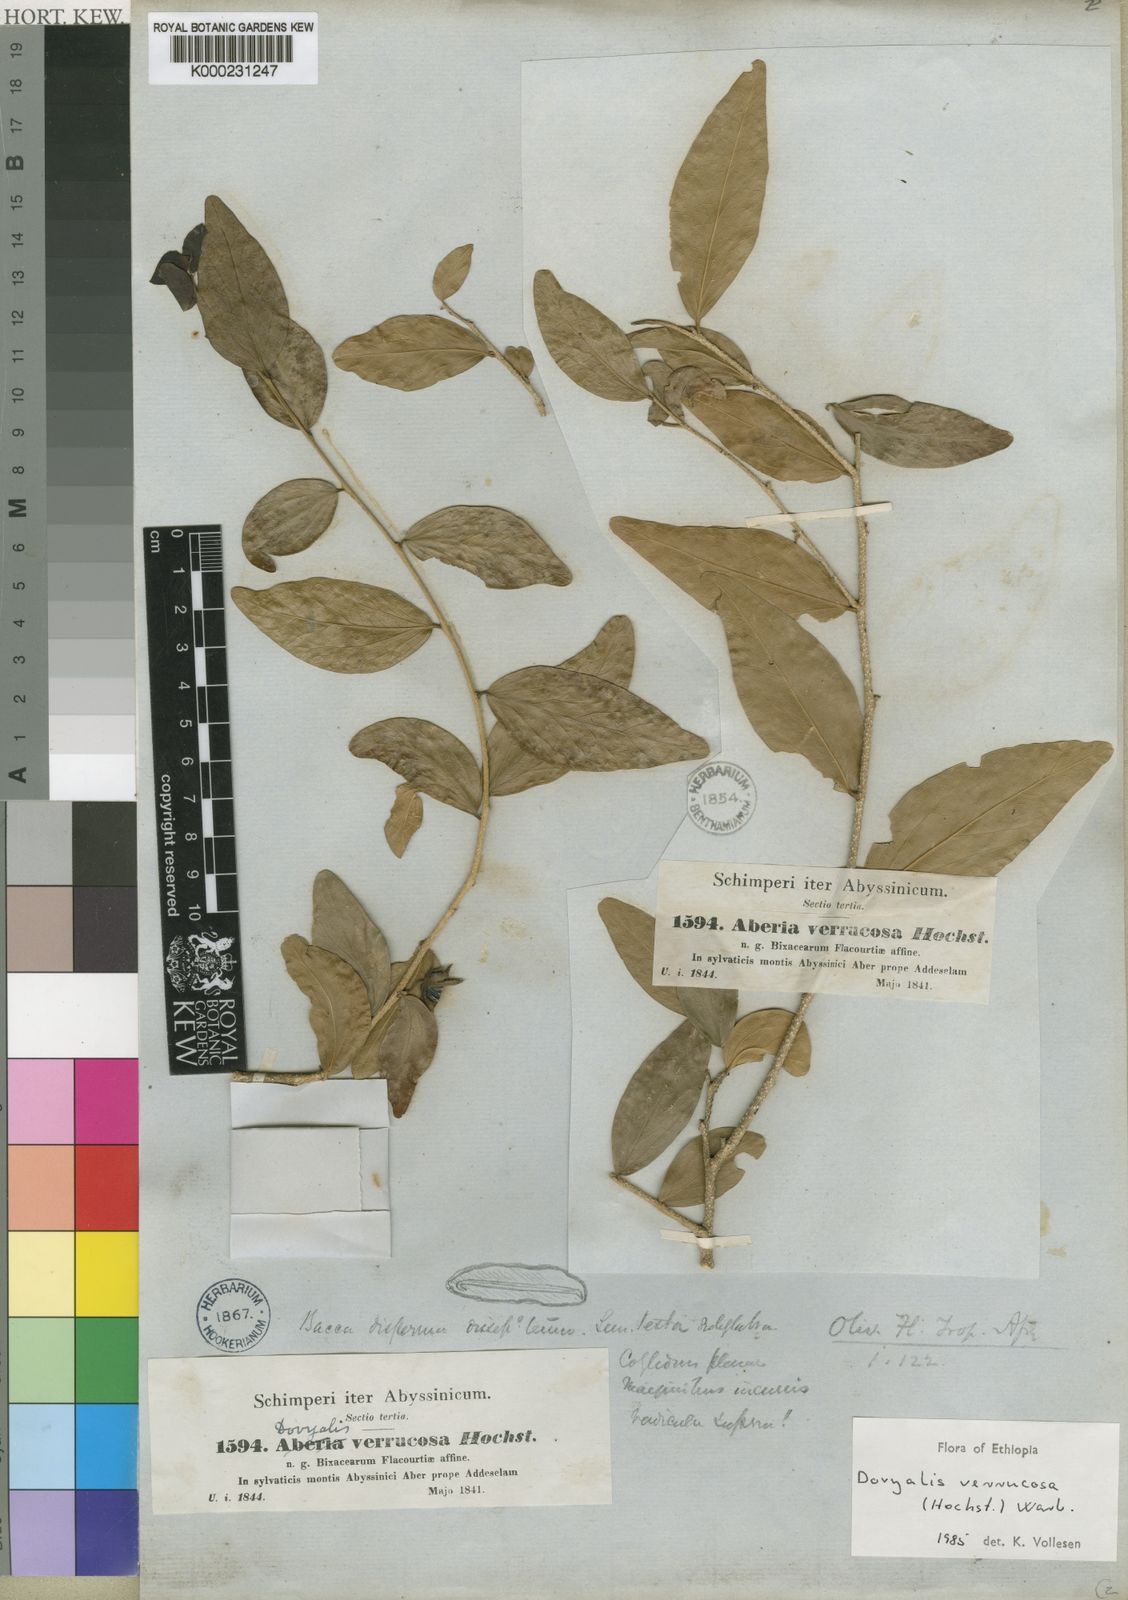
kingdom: Plantae
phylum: Tracheophyta
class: Magnoliopsida
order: Malpighiales
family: Salicaceae
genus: Dovyalis
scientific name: Dovyalis
